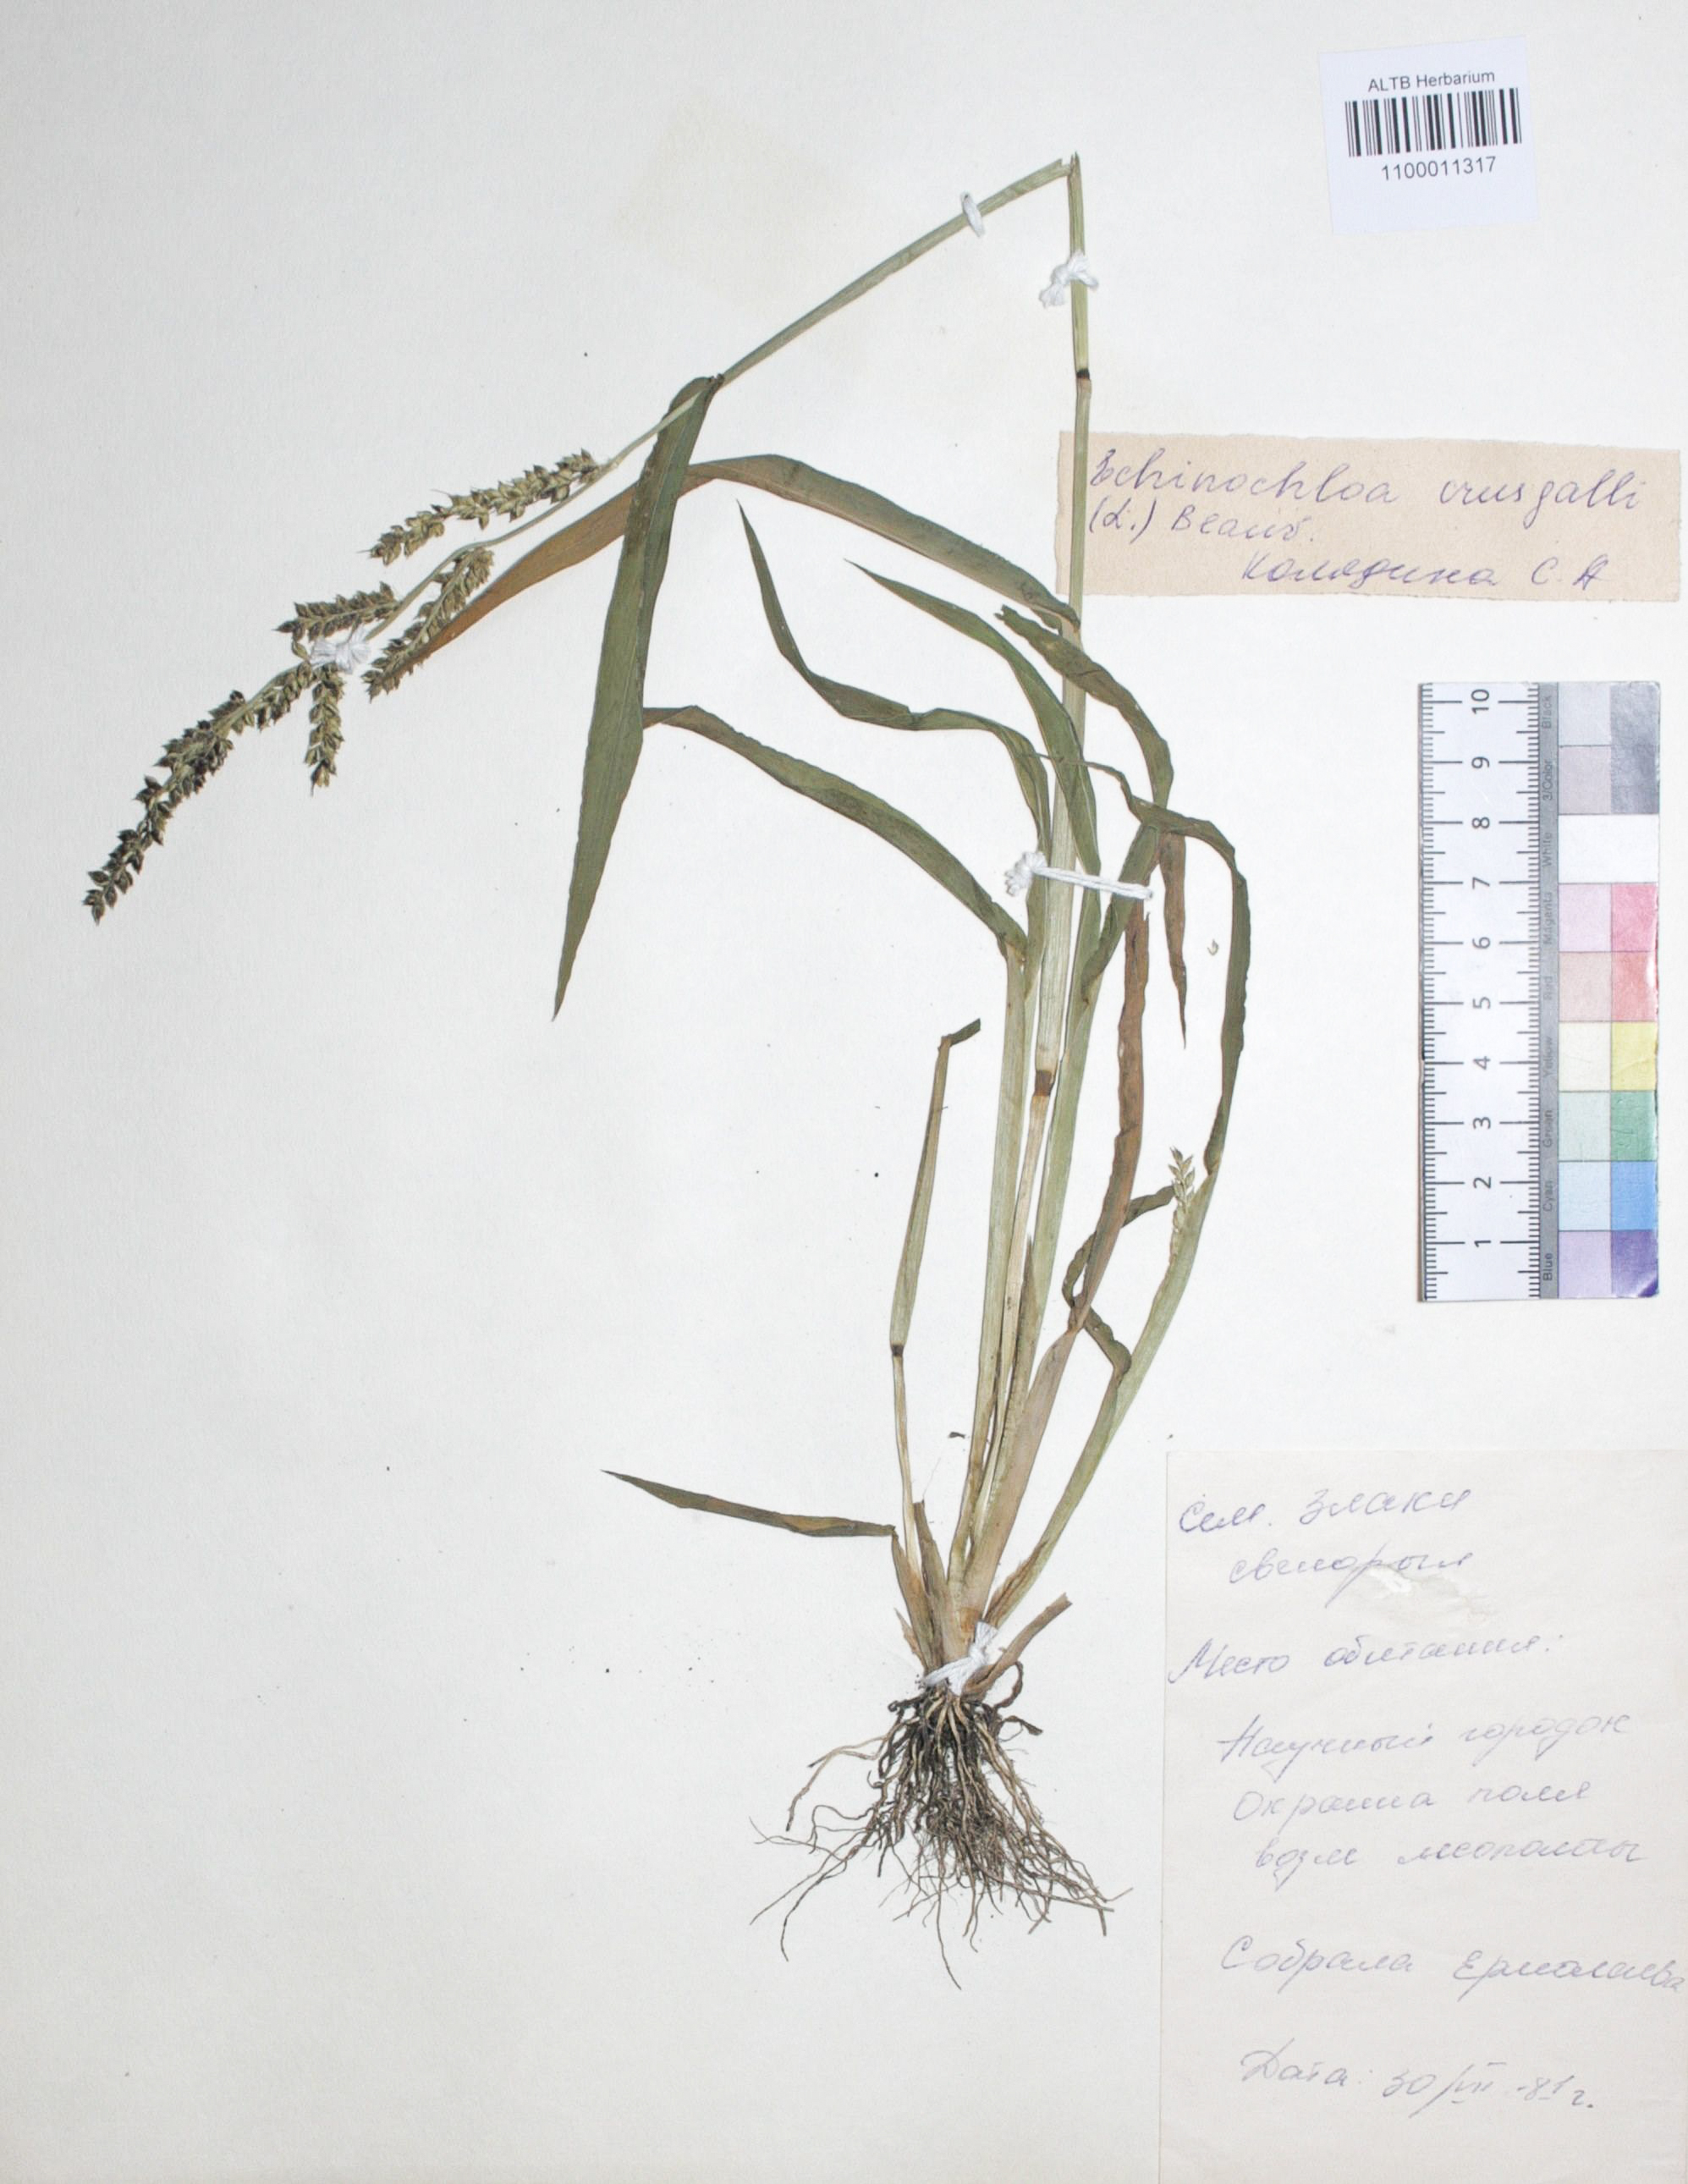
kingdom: Plantae
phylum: Tracheophyta
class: Liliopsida
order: Poales
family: Poaceae
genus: Echinochloa
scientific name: Echinochloa crus-galli
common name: Cockspur
